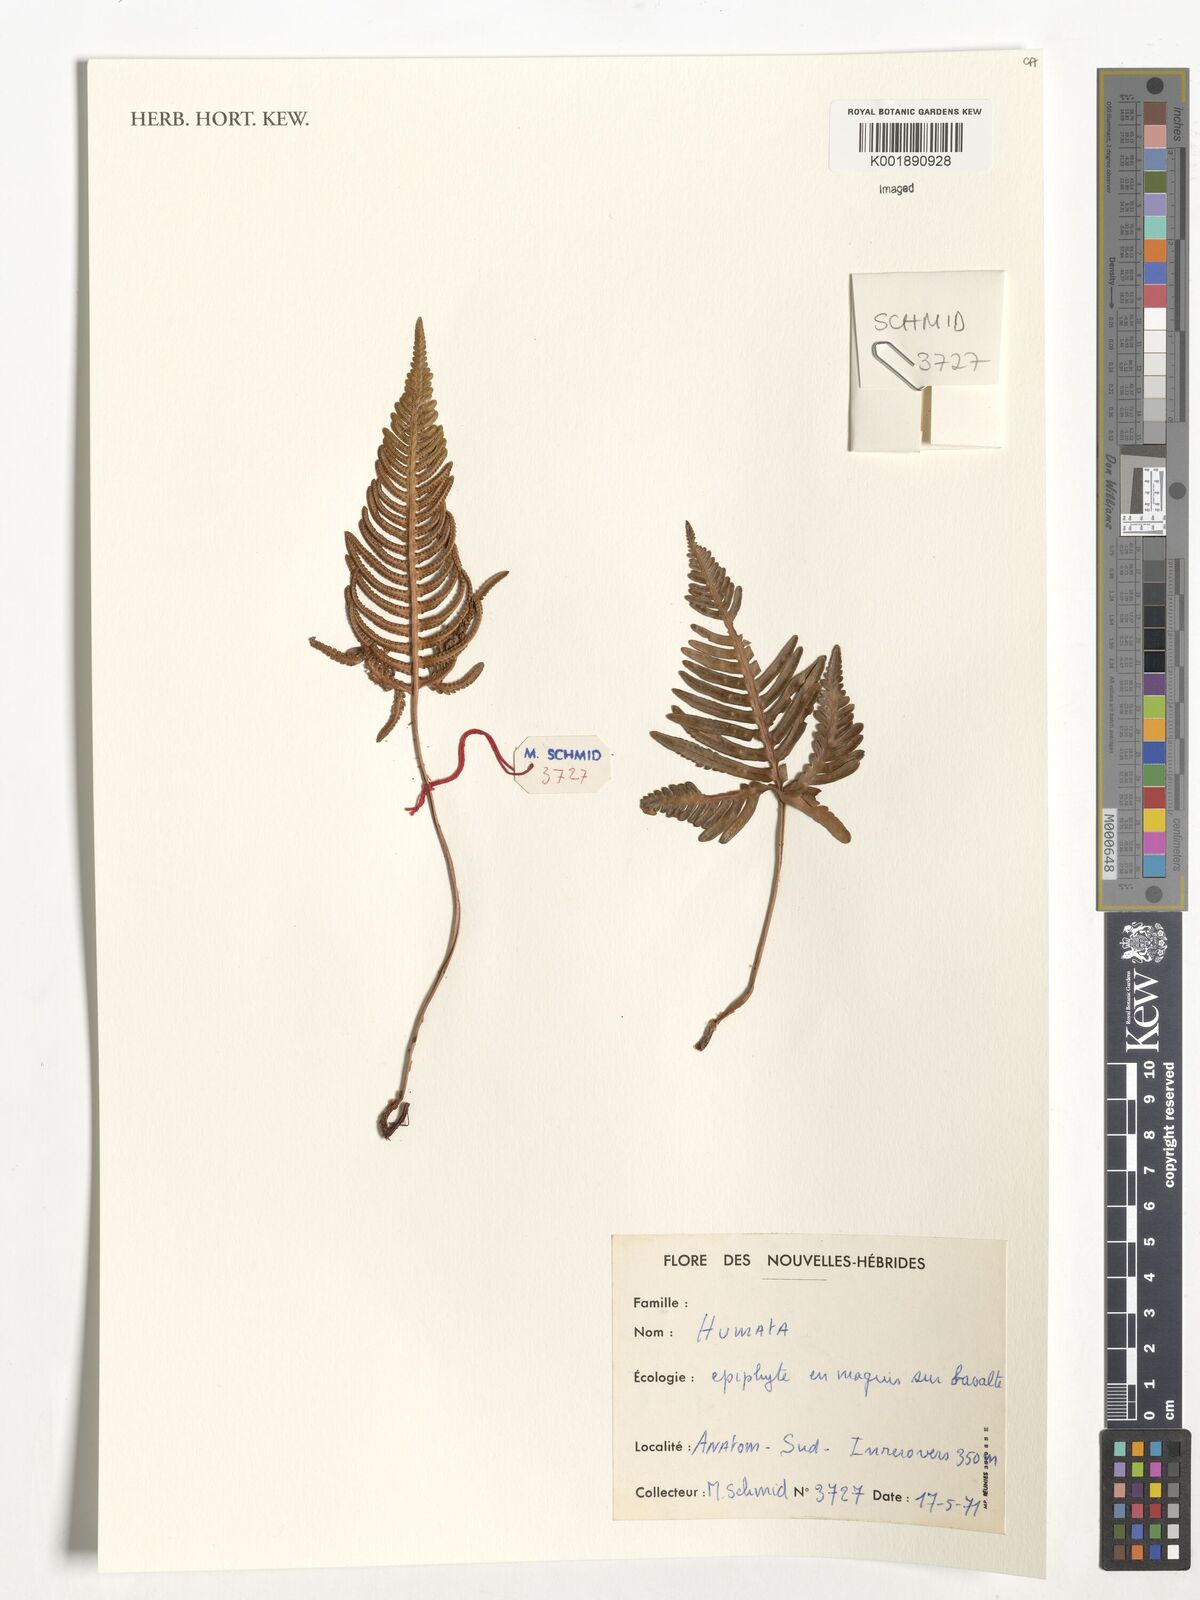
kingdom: Plantae
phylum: Tracheophyta
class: Polypodiopsida
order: Polypodiales
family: Davalliaceae
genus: Davallia
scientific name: Davallia
